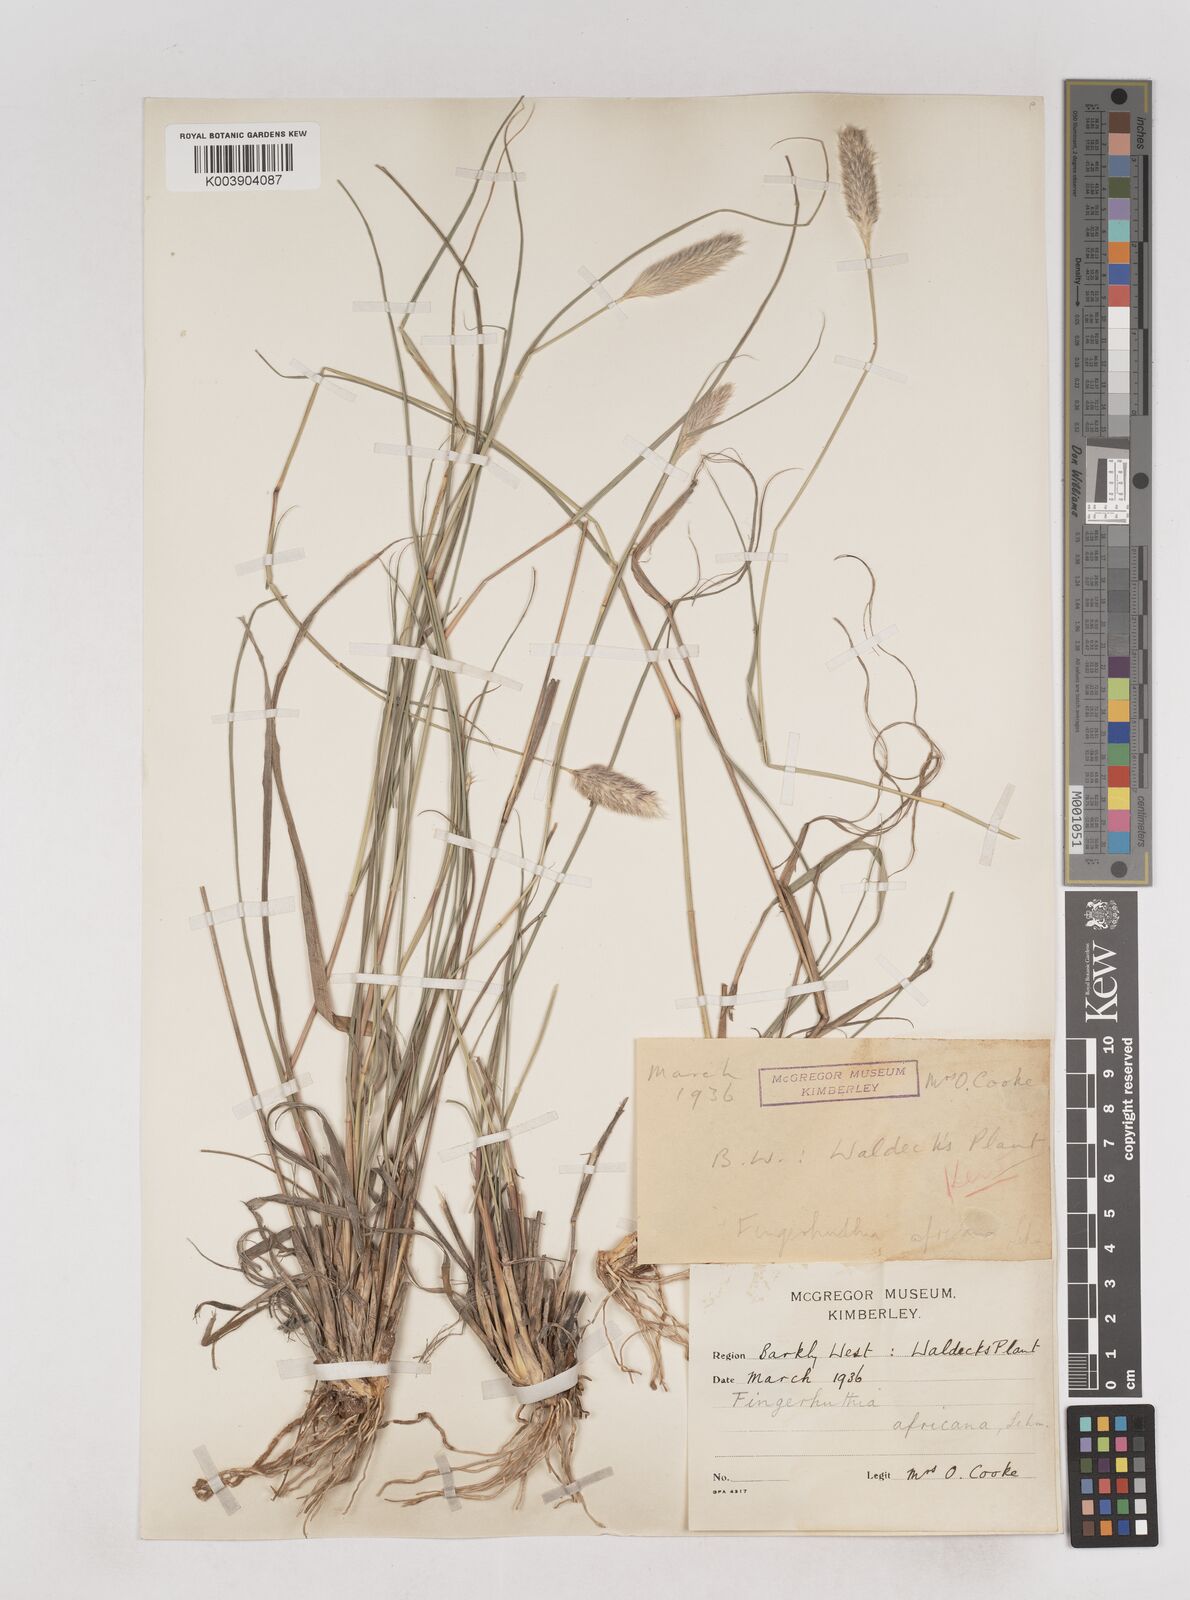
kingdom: Plantae
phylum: Tracheophyta
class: Liliopsida
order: Poales
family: Poaceae
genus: Fingerhuthia
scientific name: Fingerhuthia africana
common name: Zulu fescue
